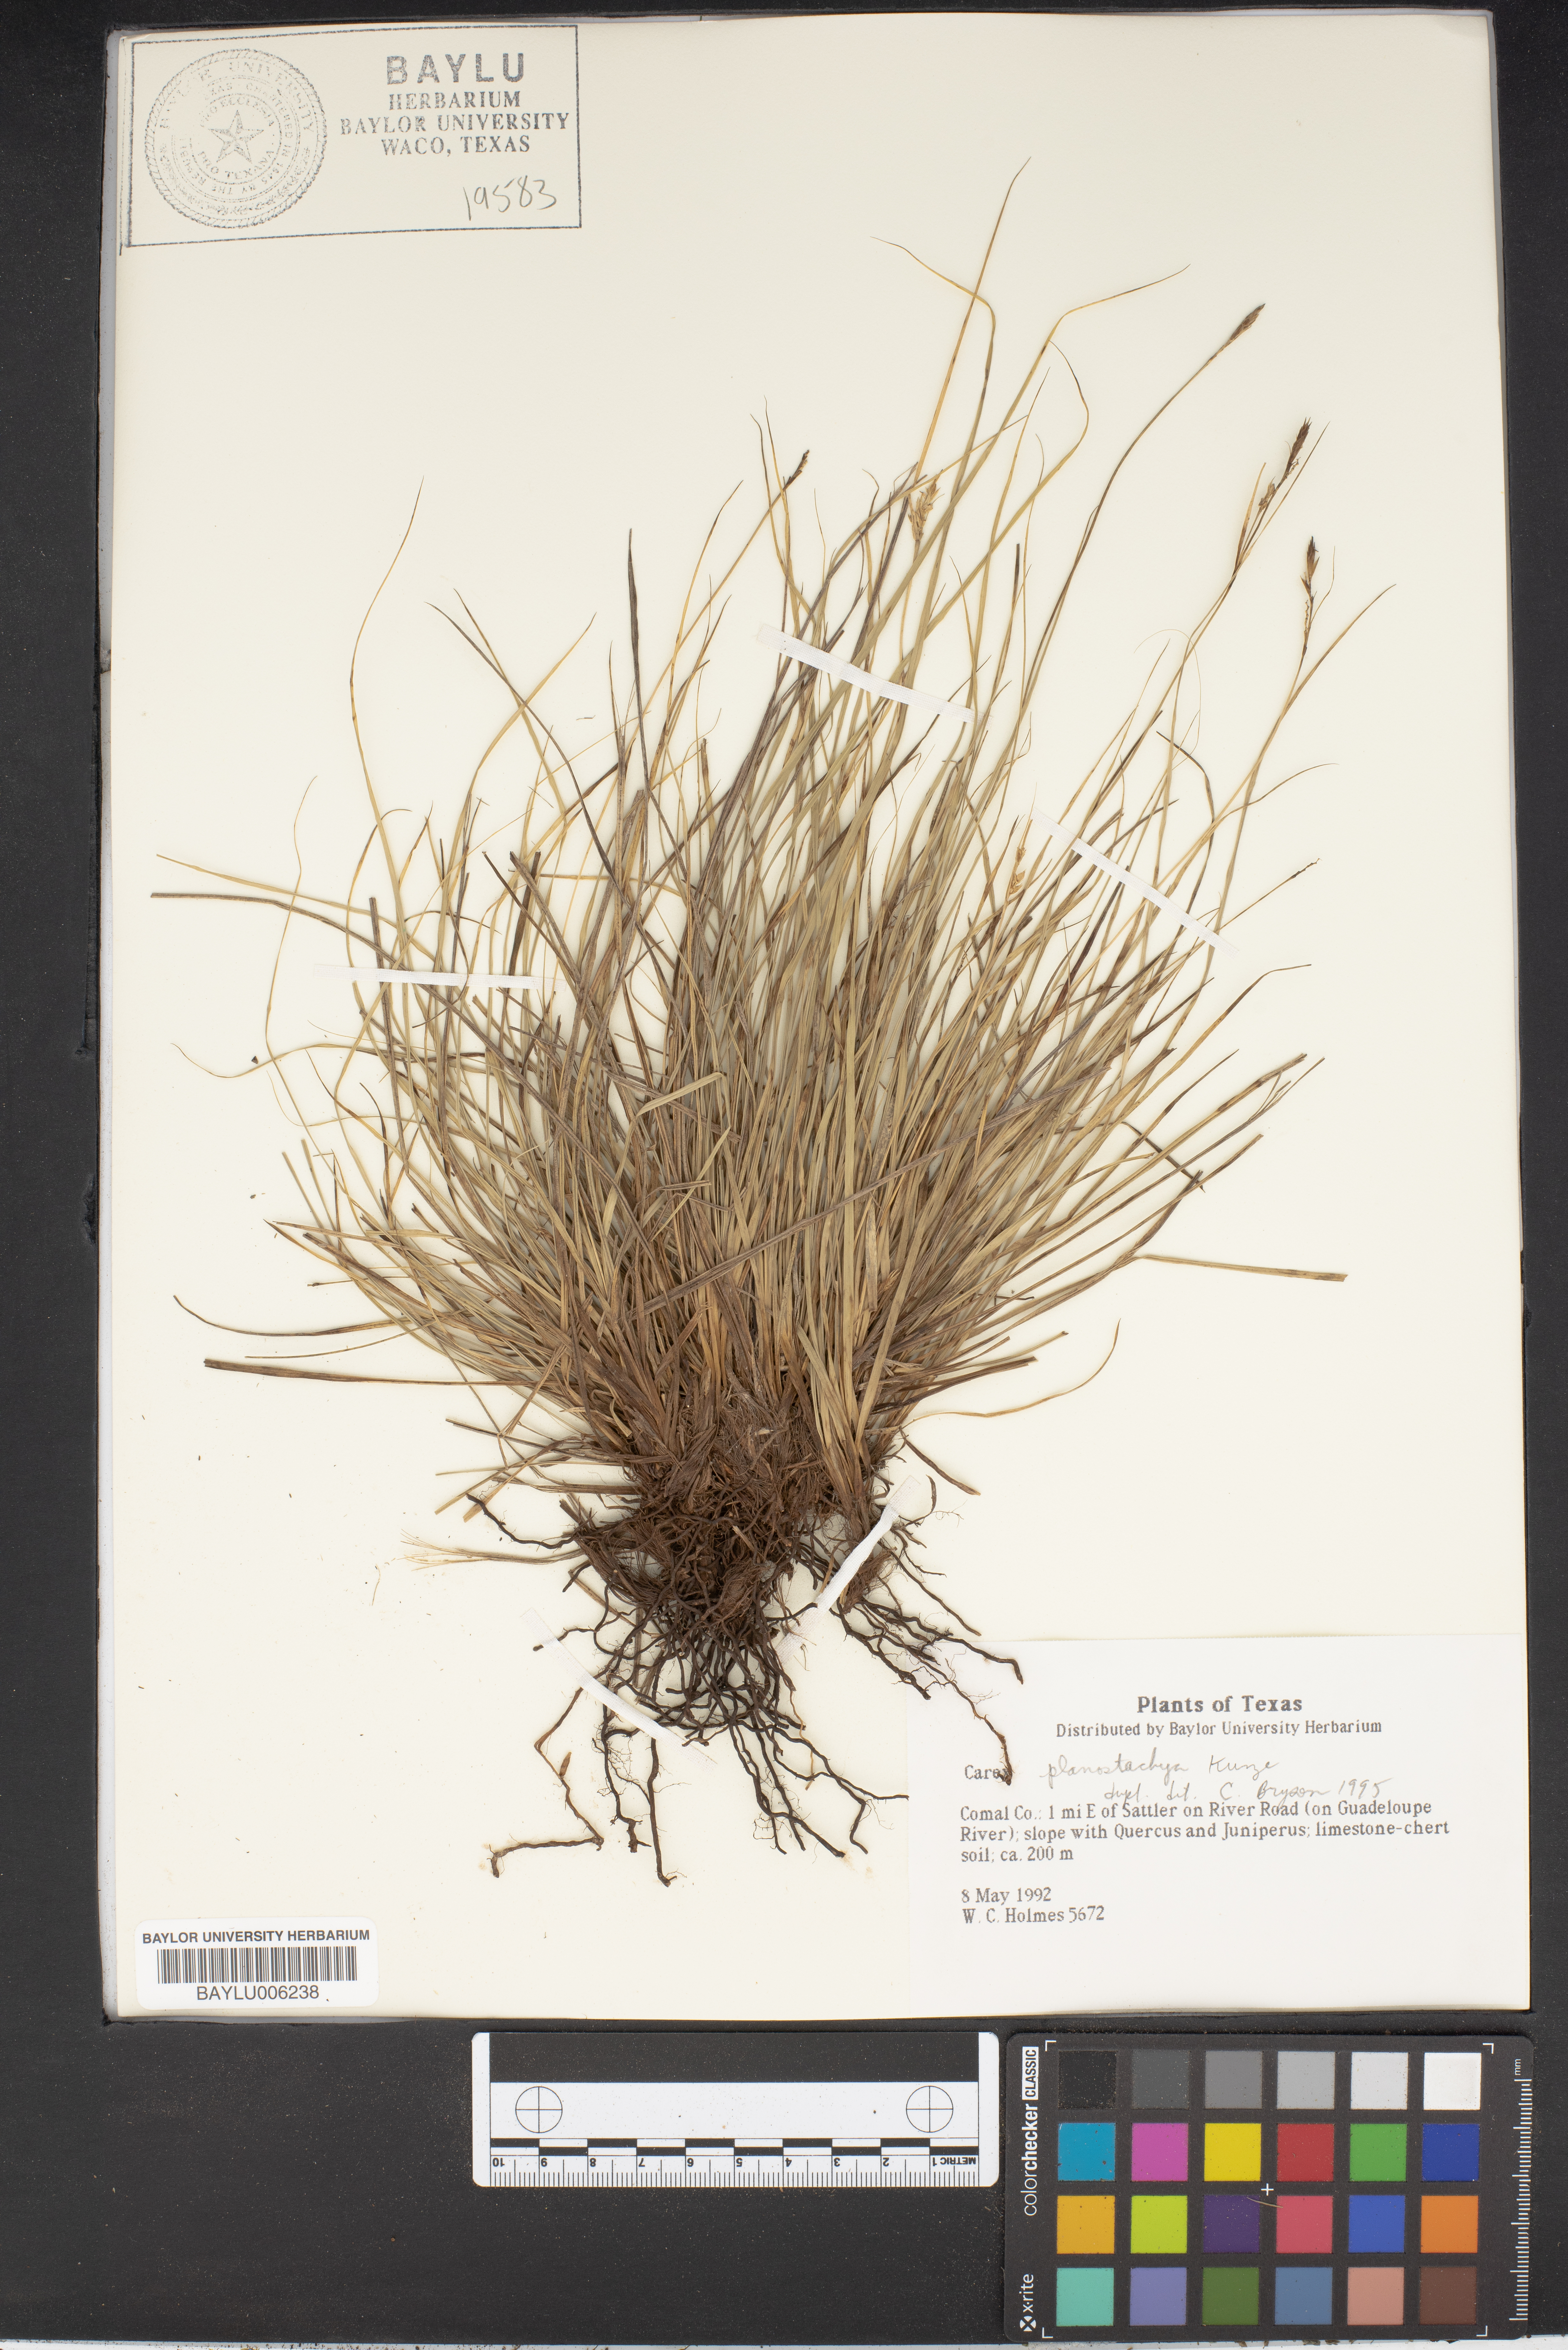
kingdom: Plantae
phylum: Tracheophyta
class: Liliopsida
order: Poales
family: Cyperaceae
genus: Carex
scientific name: Carex planostachys
